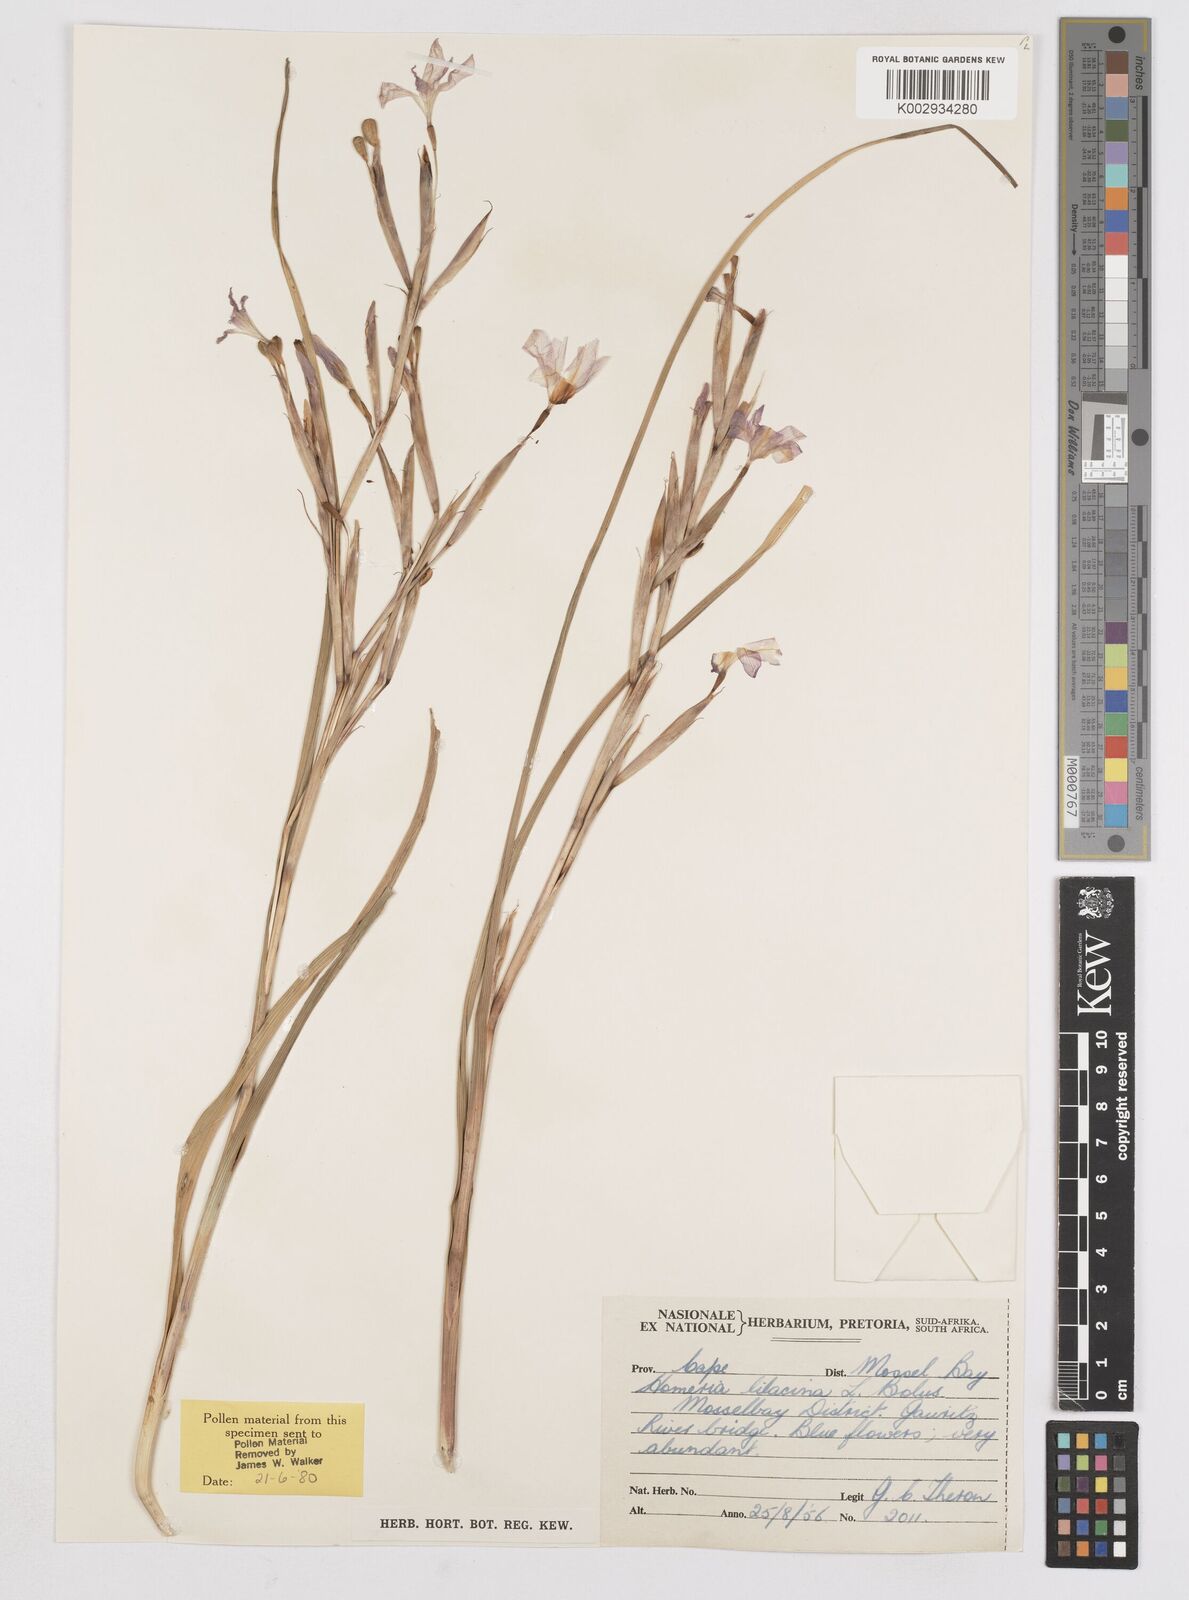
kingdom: Plantae
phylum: Tracheophyta
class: Liliopsida
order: Asparagales
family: Iridaceae
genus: Moraea
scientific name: Moraea
